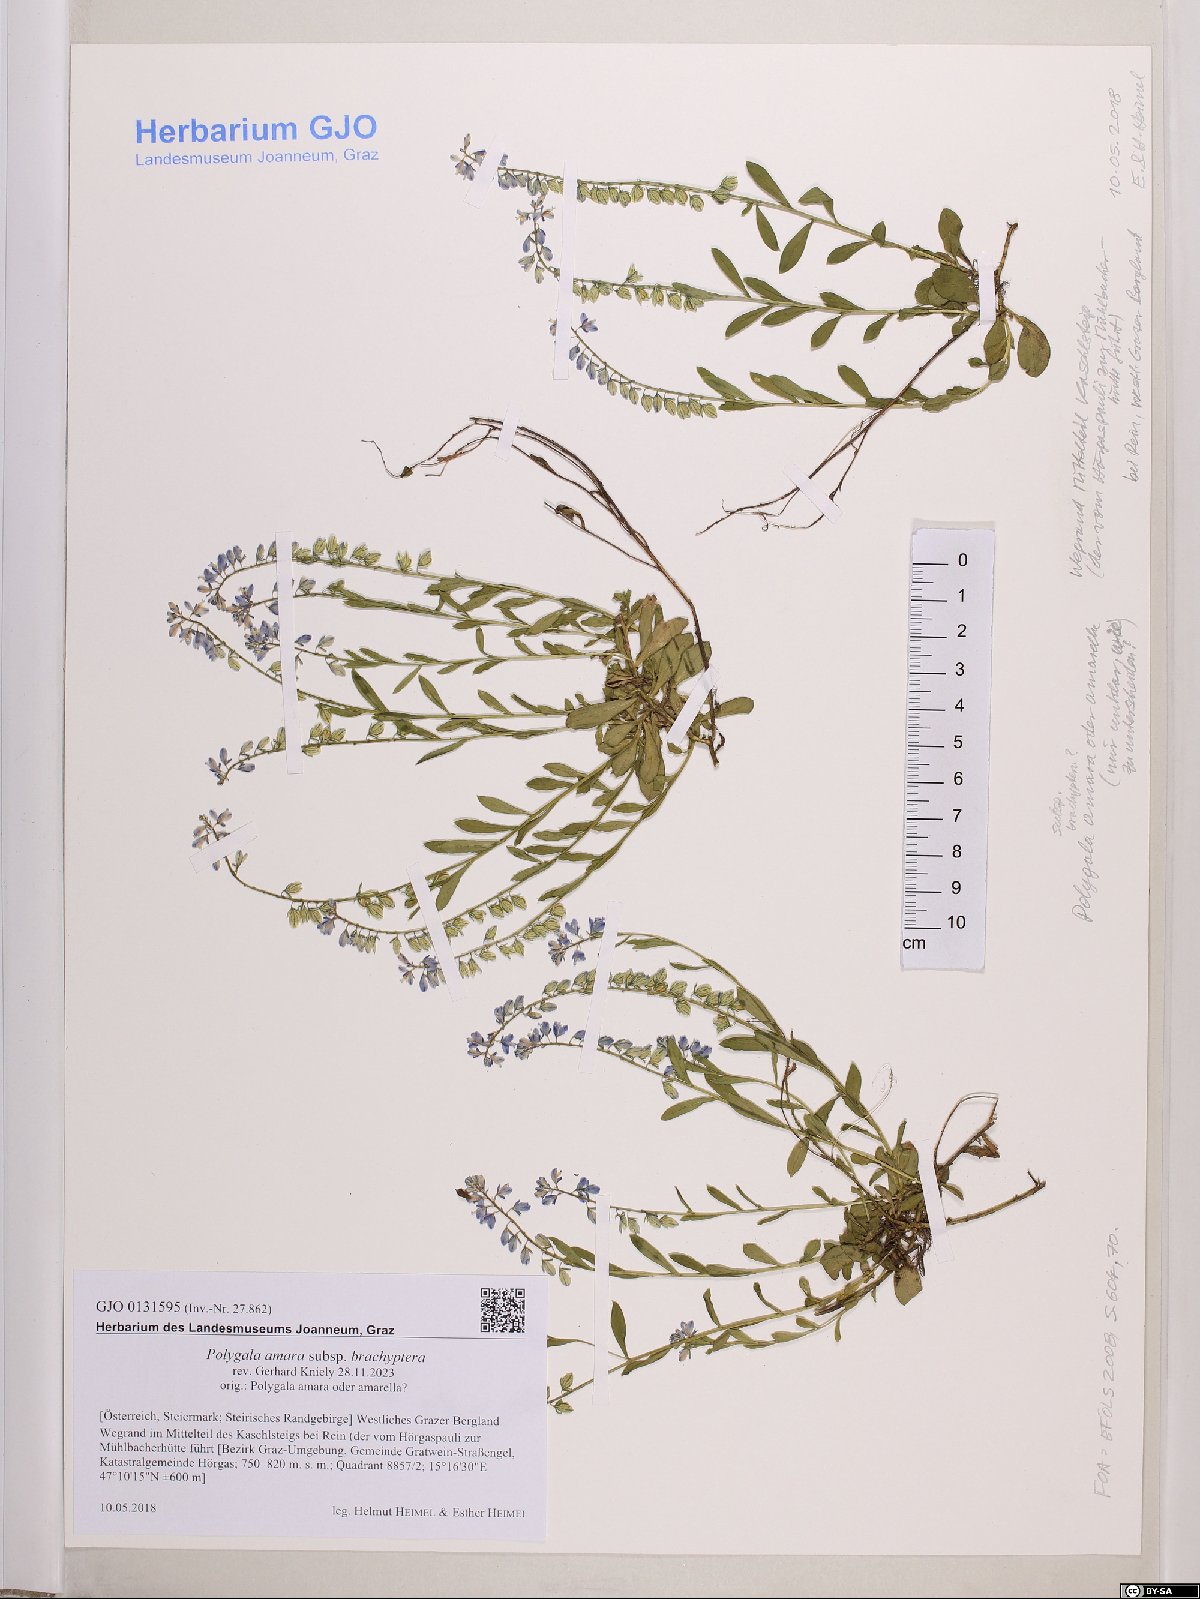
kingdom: Plantae
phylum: Tracheophyta
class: Magnoliopsida
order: Fabales
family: Polygalaceae
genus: Polygala
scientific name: Polygala amara
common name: Milkwort
